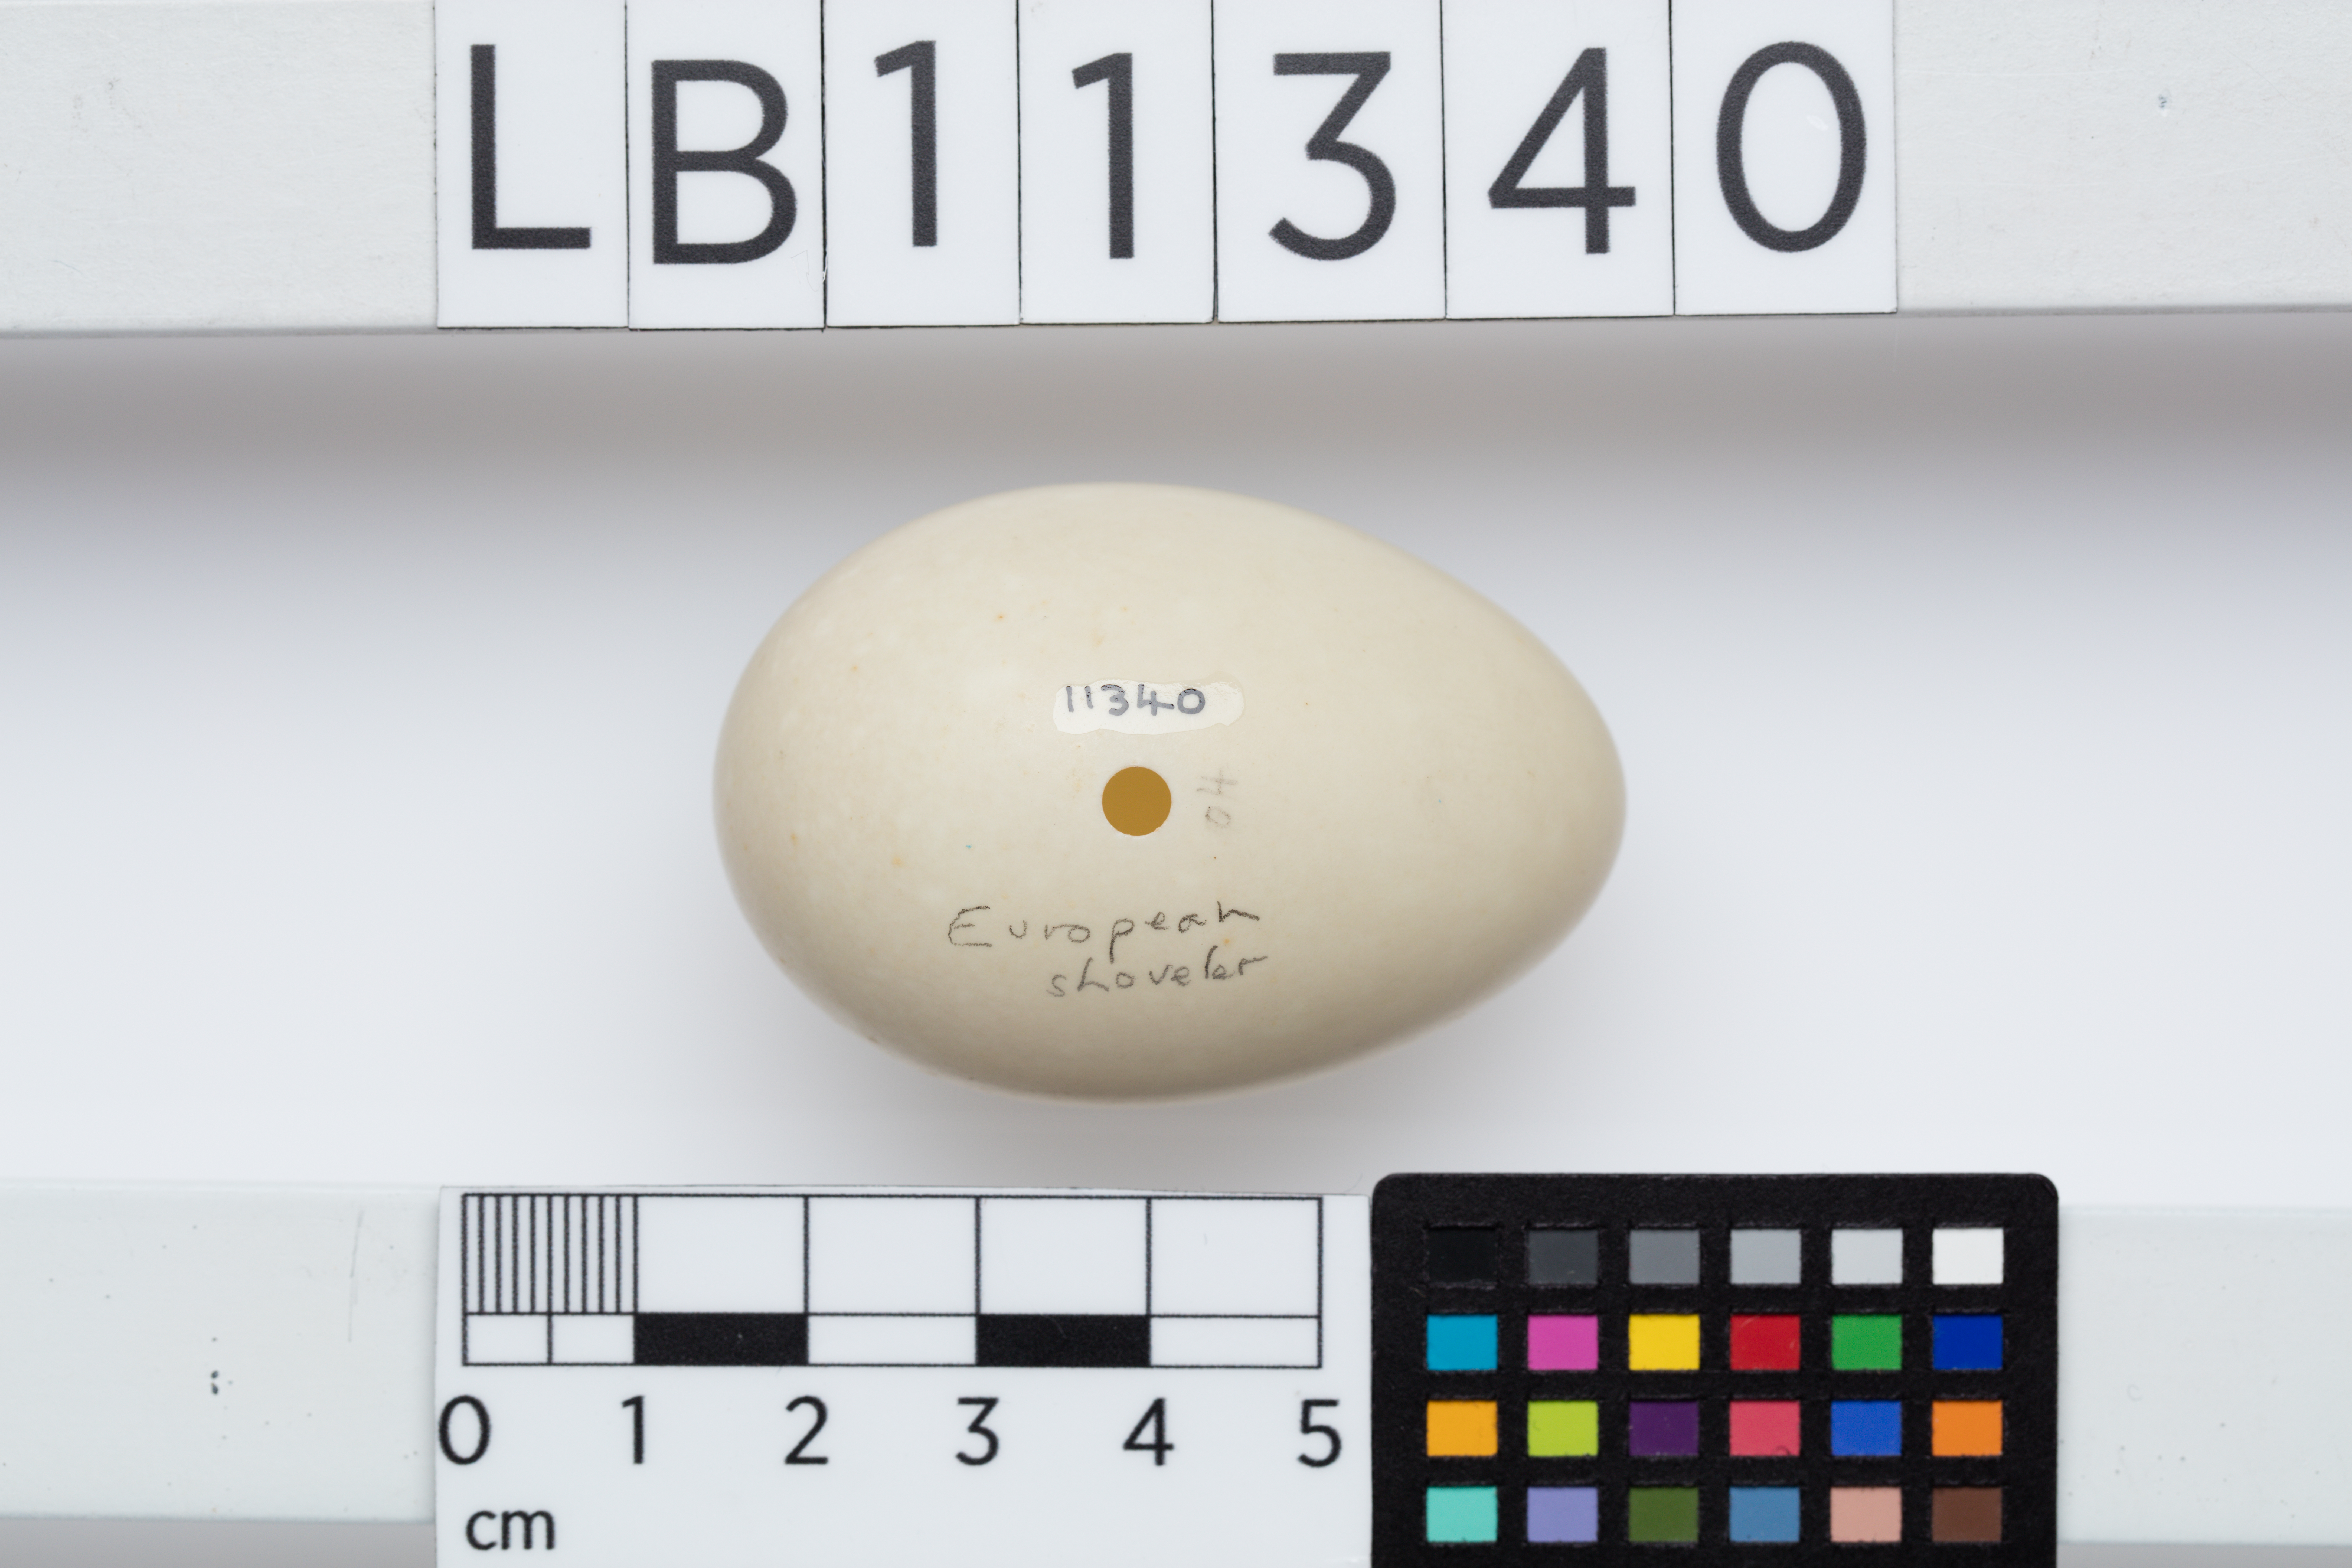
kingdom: Animalia
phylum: Chordata
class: Aves
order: Anseriformes
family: Anatidae
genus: Spatula
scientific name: Spatula clypeata
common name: Northern shoveler
